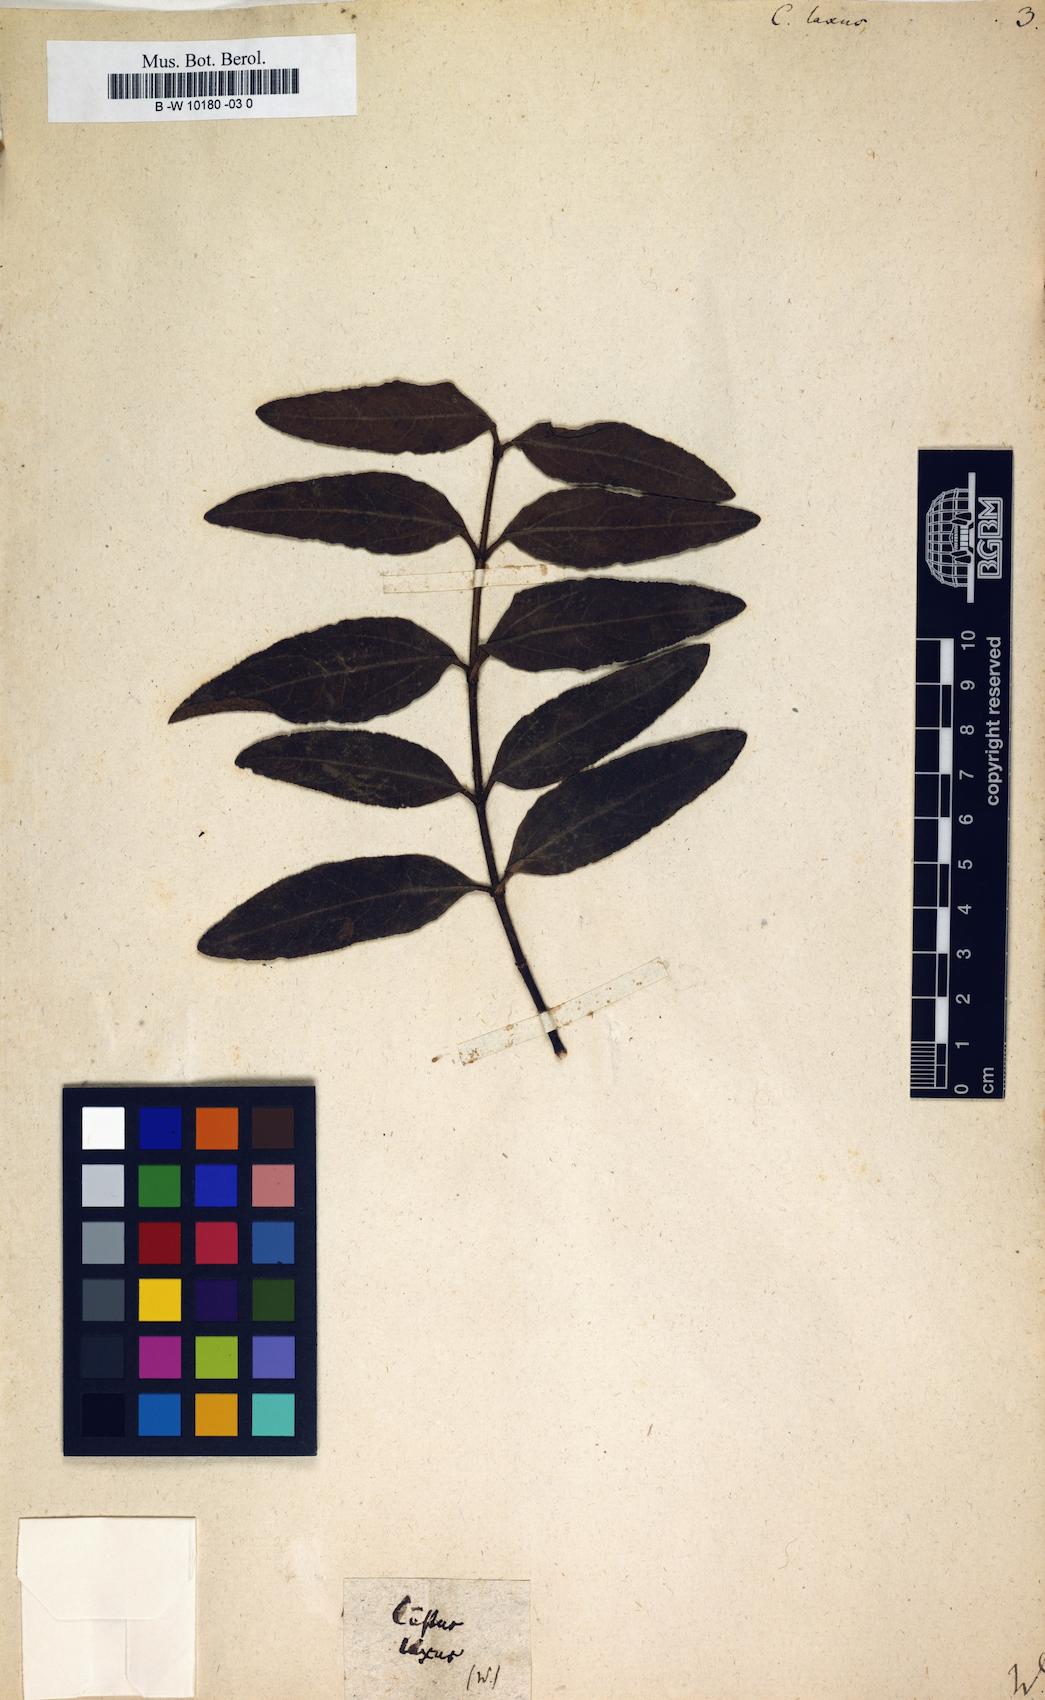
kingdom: Plantae
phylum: Tracheophyta
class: Magnoliopsida
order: Malvales
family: Cistaceae
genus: Cistus
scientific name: Cistus laxus
